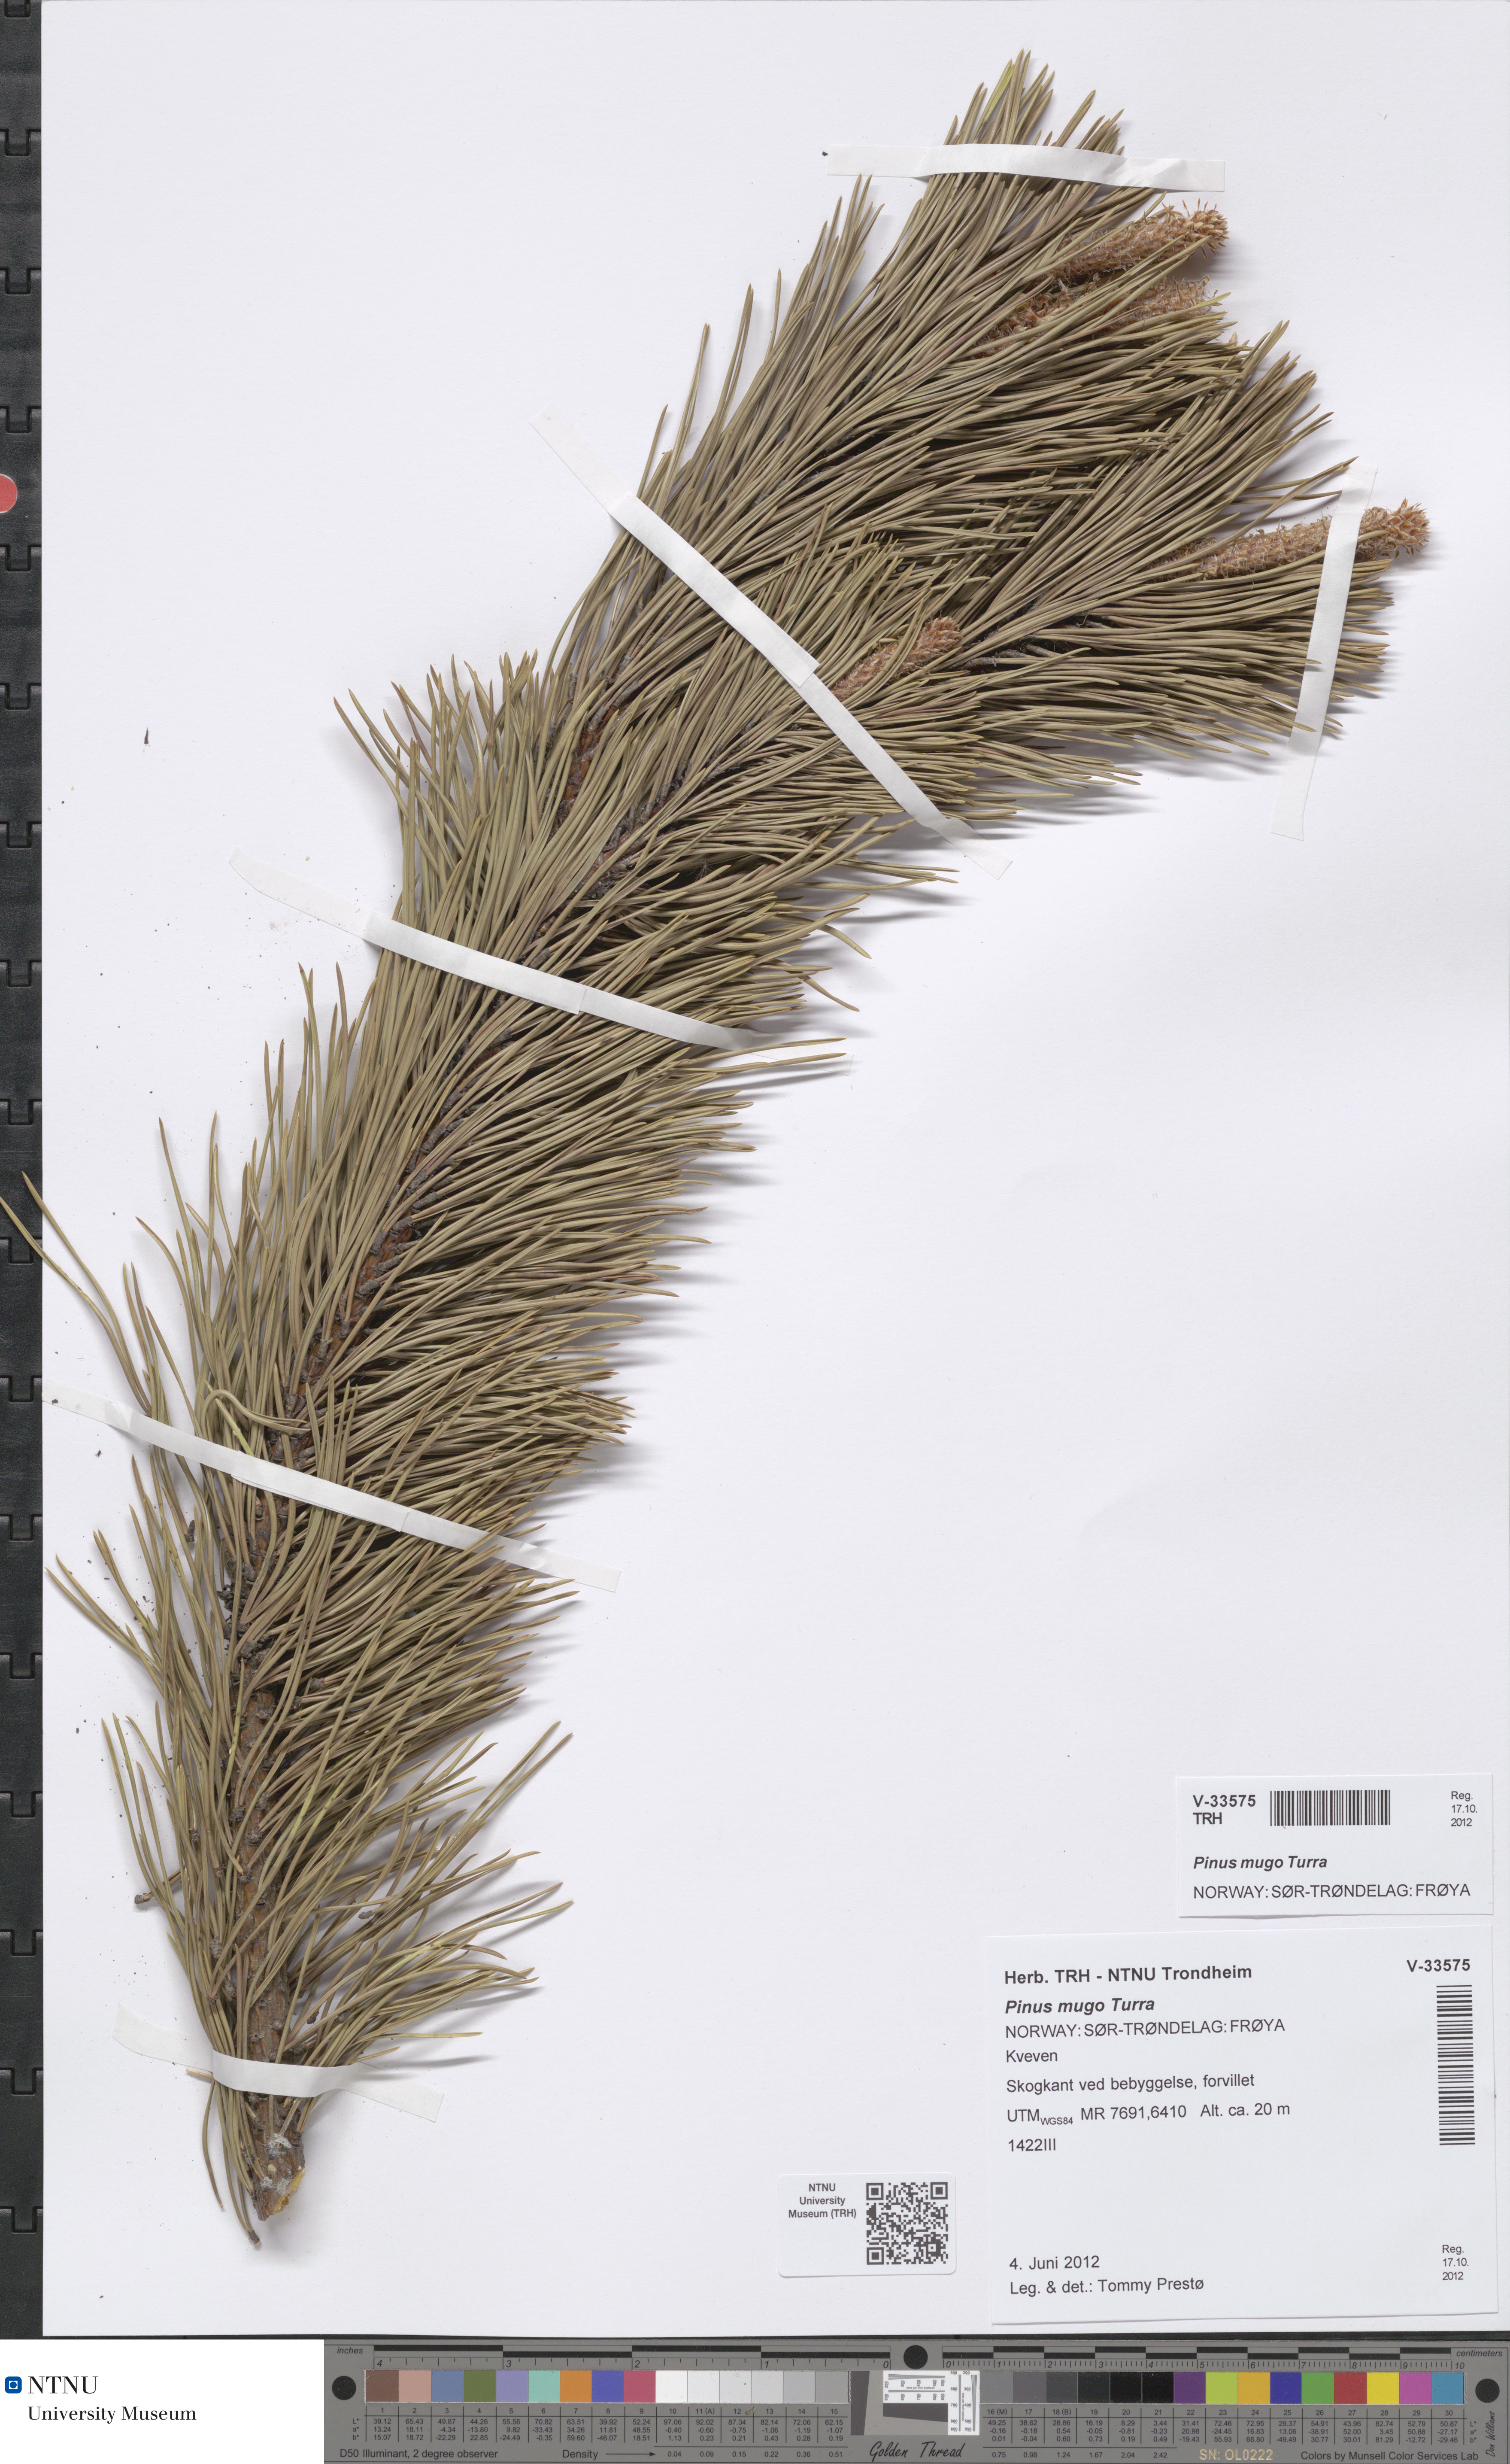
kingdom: Plantae
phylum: Tracheophyta
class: Pinopsida
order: Pinales
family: Pinaceae
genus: Pinus
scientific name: Pinus mugo
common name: Mugo pine
